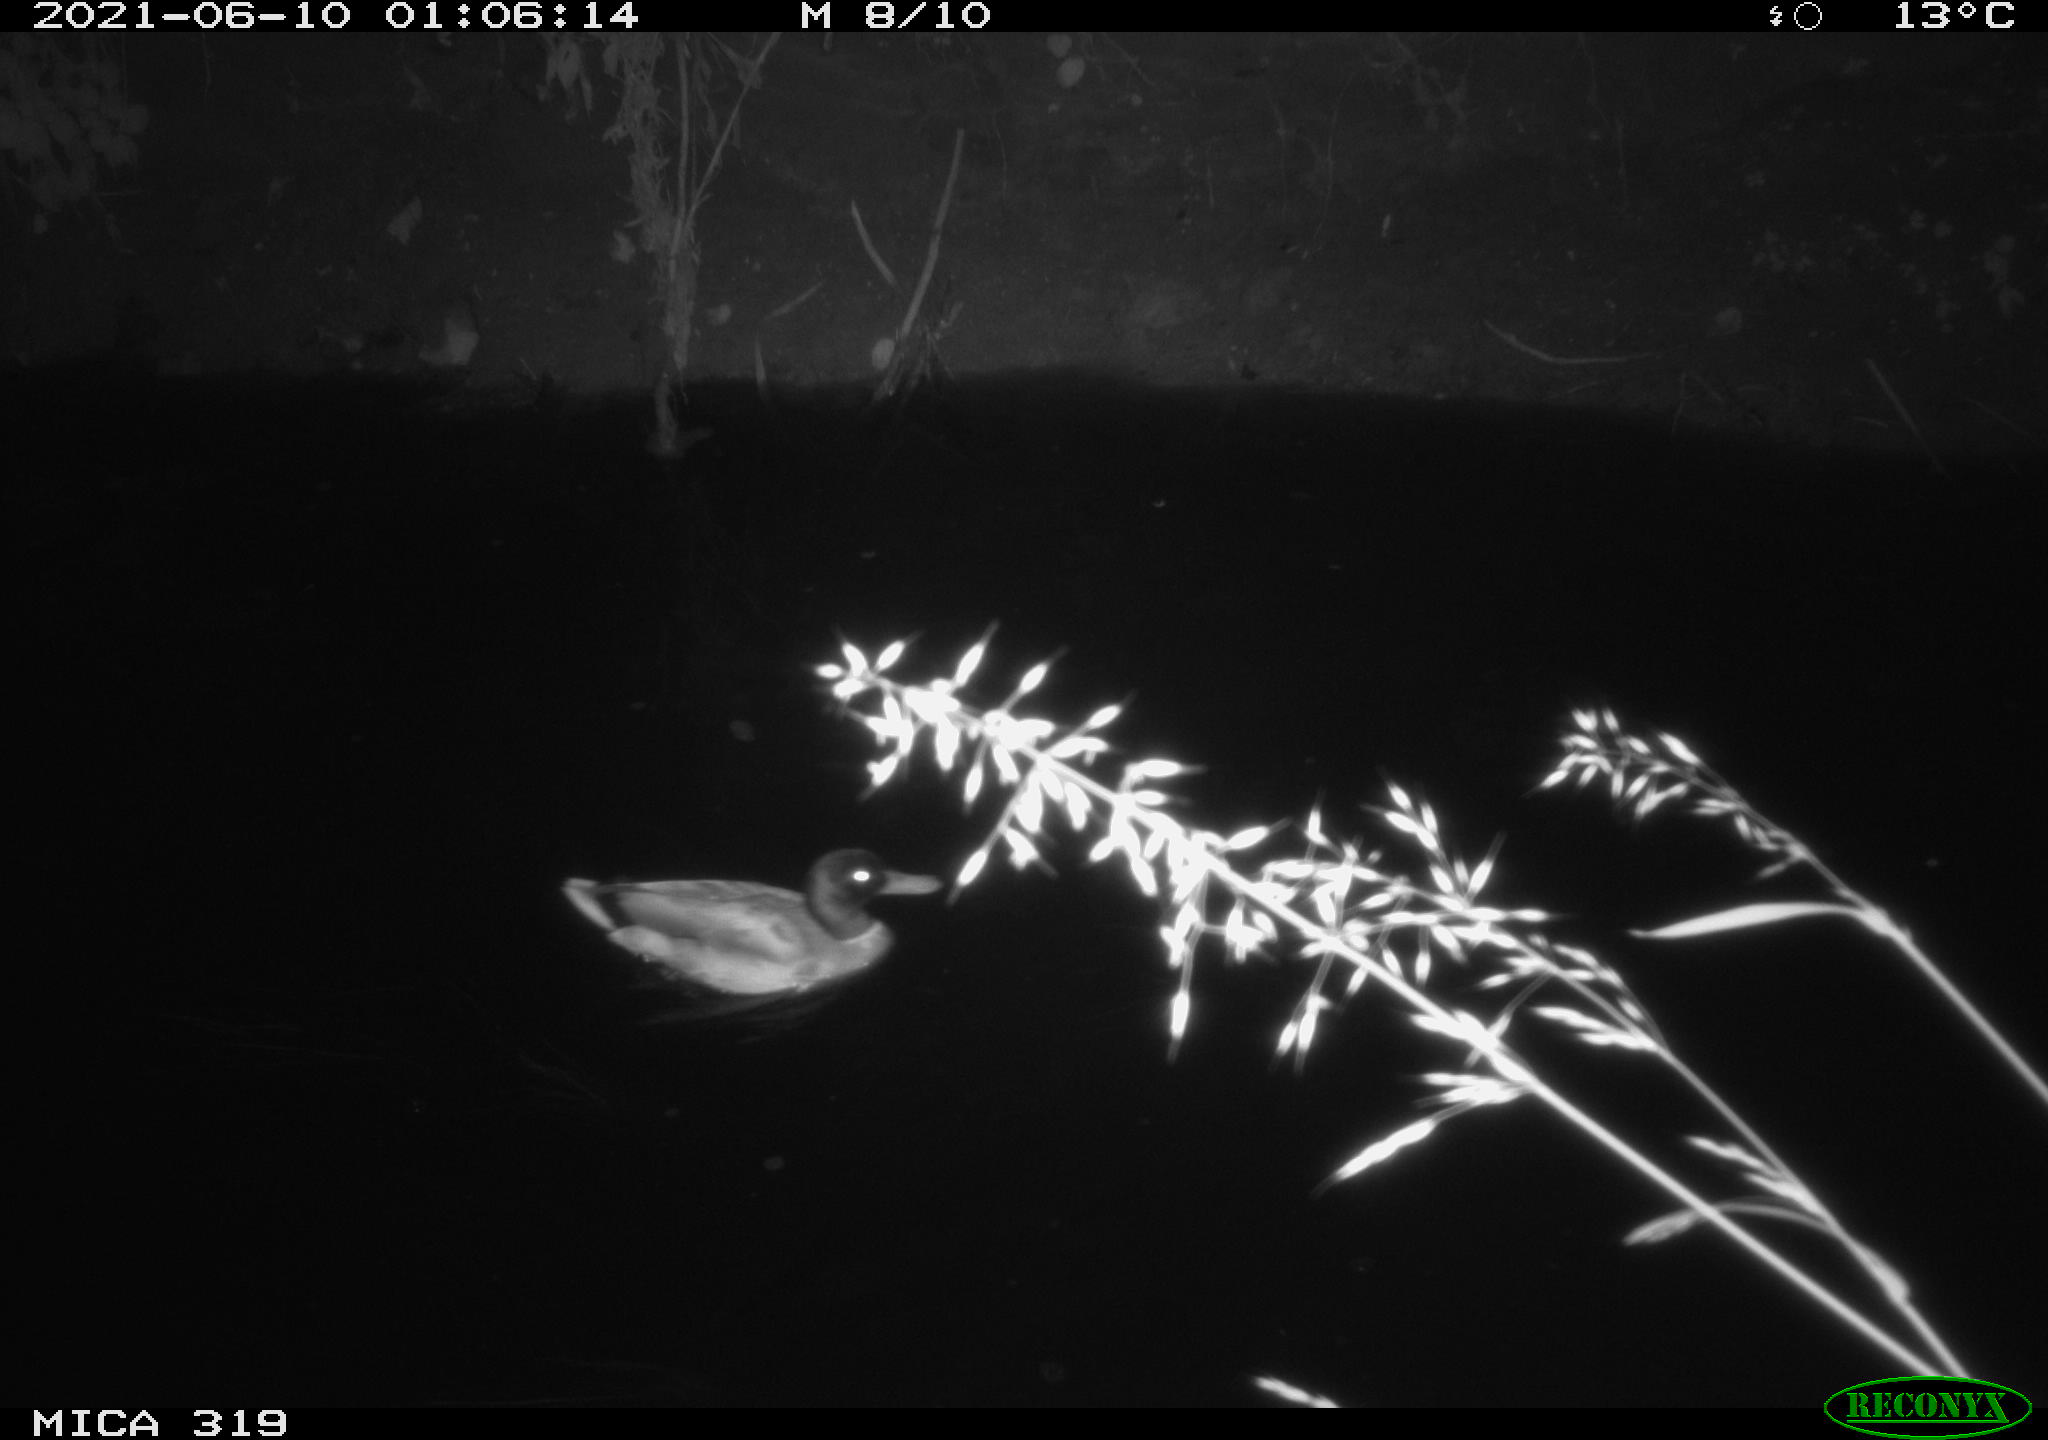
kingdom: Animalia
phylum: Chordata
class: Aves
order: Anseriformes
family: Anatidae
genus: Anas
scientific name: Anas platyrhynchos
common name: Mallard
